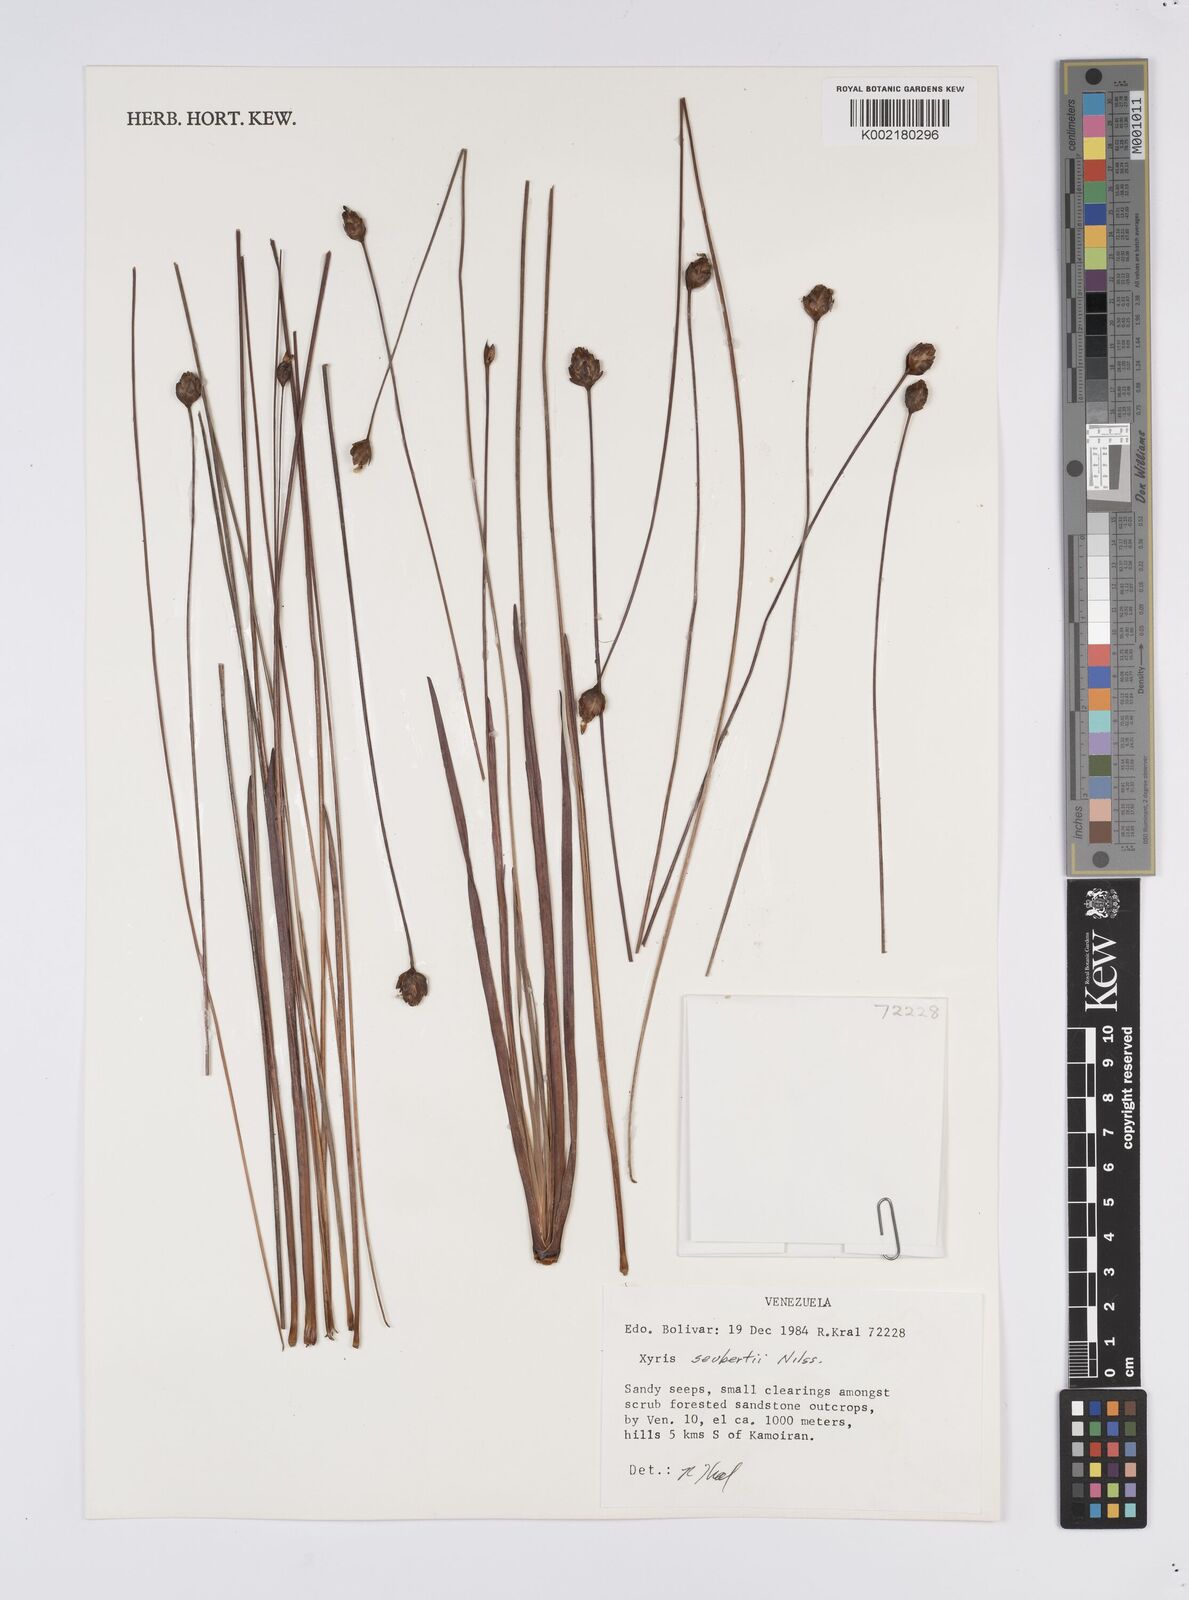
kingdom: Plantae
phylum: Tracheophyta
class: Liliopsida
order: Poales
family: Xyridaceae
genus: Xyris
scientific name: Xyris seubertii
